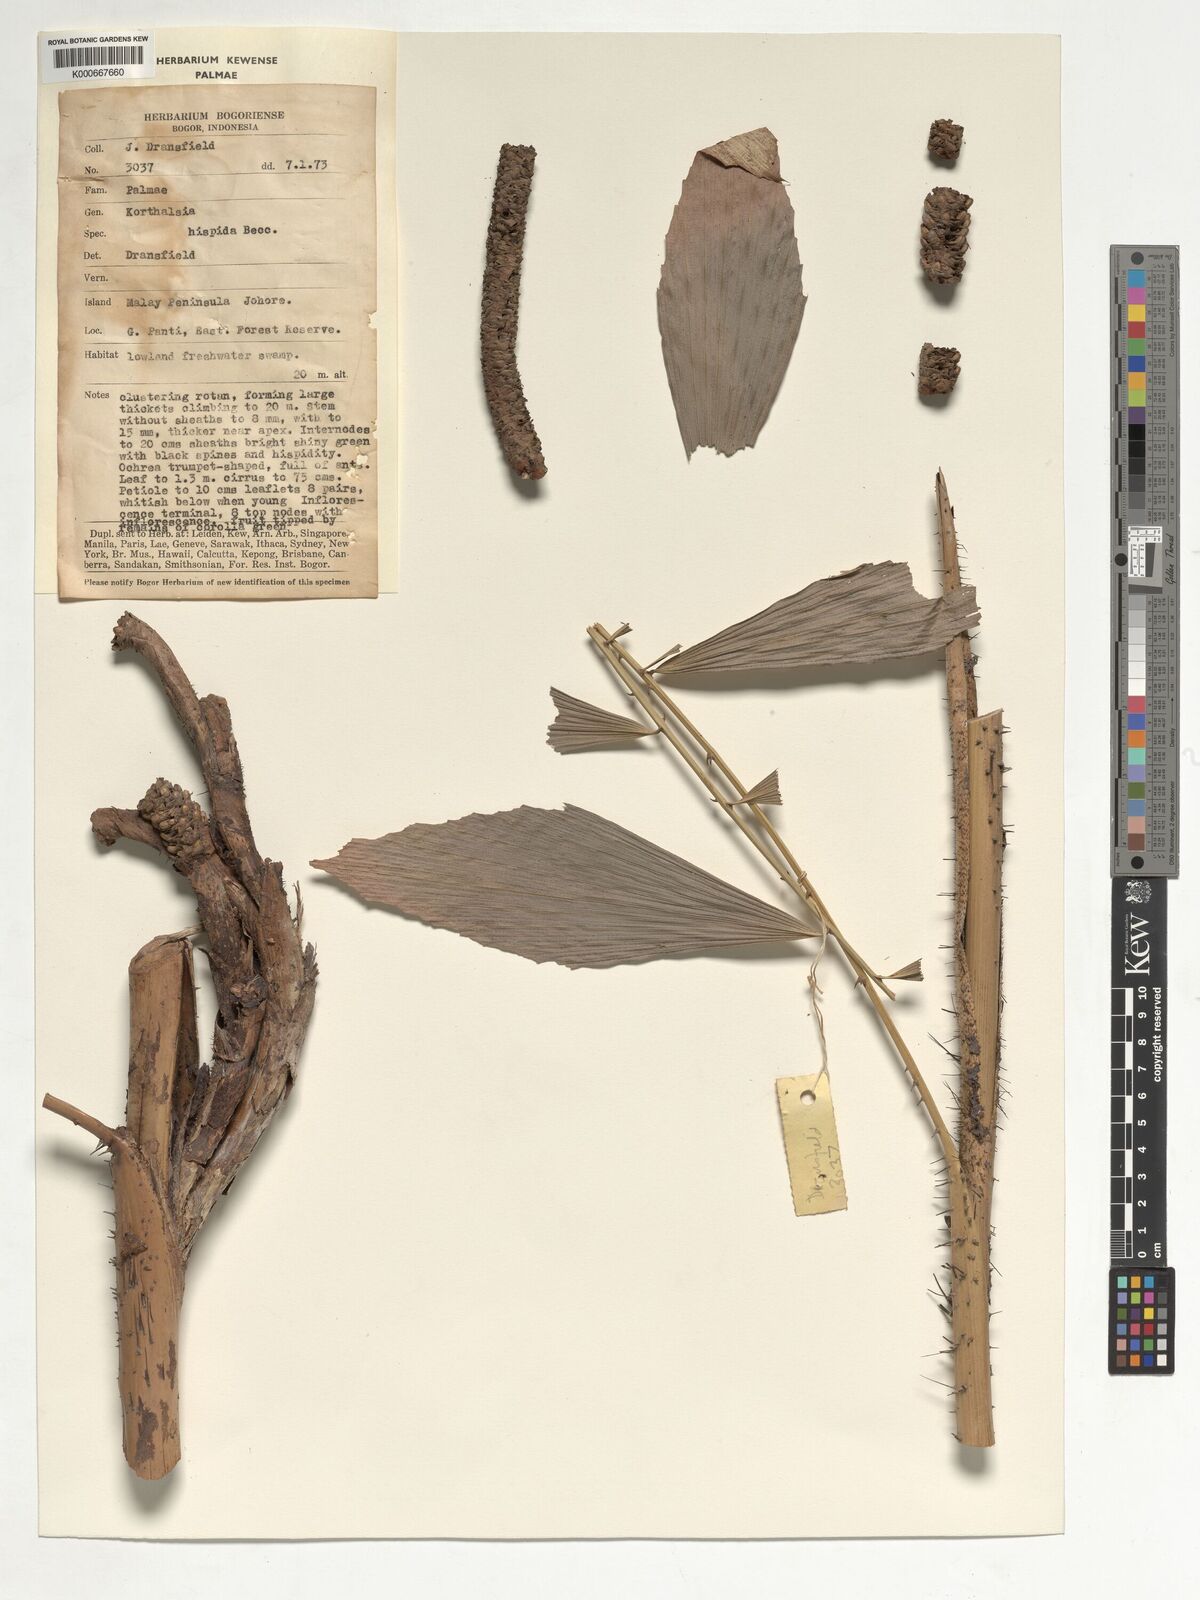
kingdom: Plantae
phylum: Tracheophyta
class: Liliopsida
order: Arecales
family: Arecaceae
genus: Korthalsia
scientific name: Korthalsia hispida
